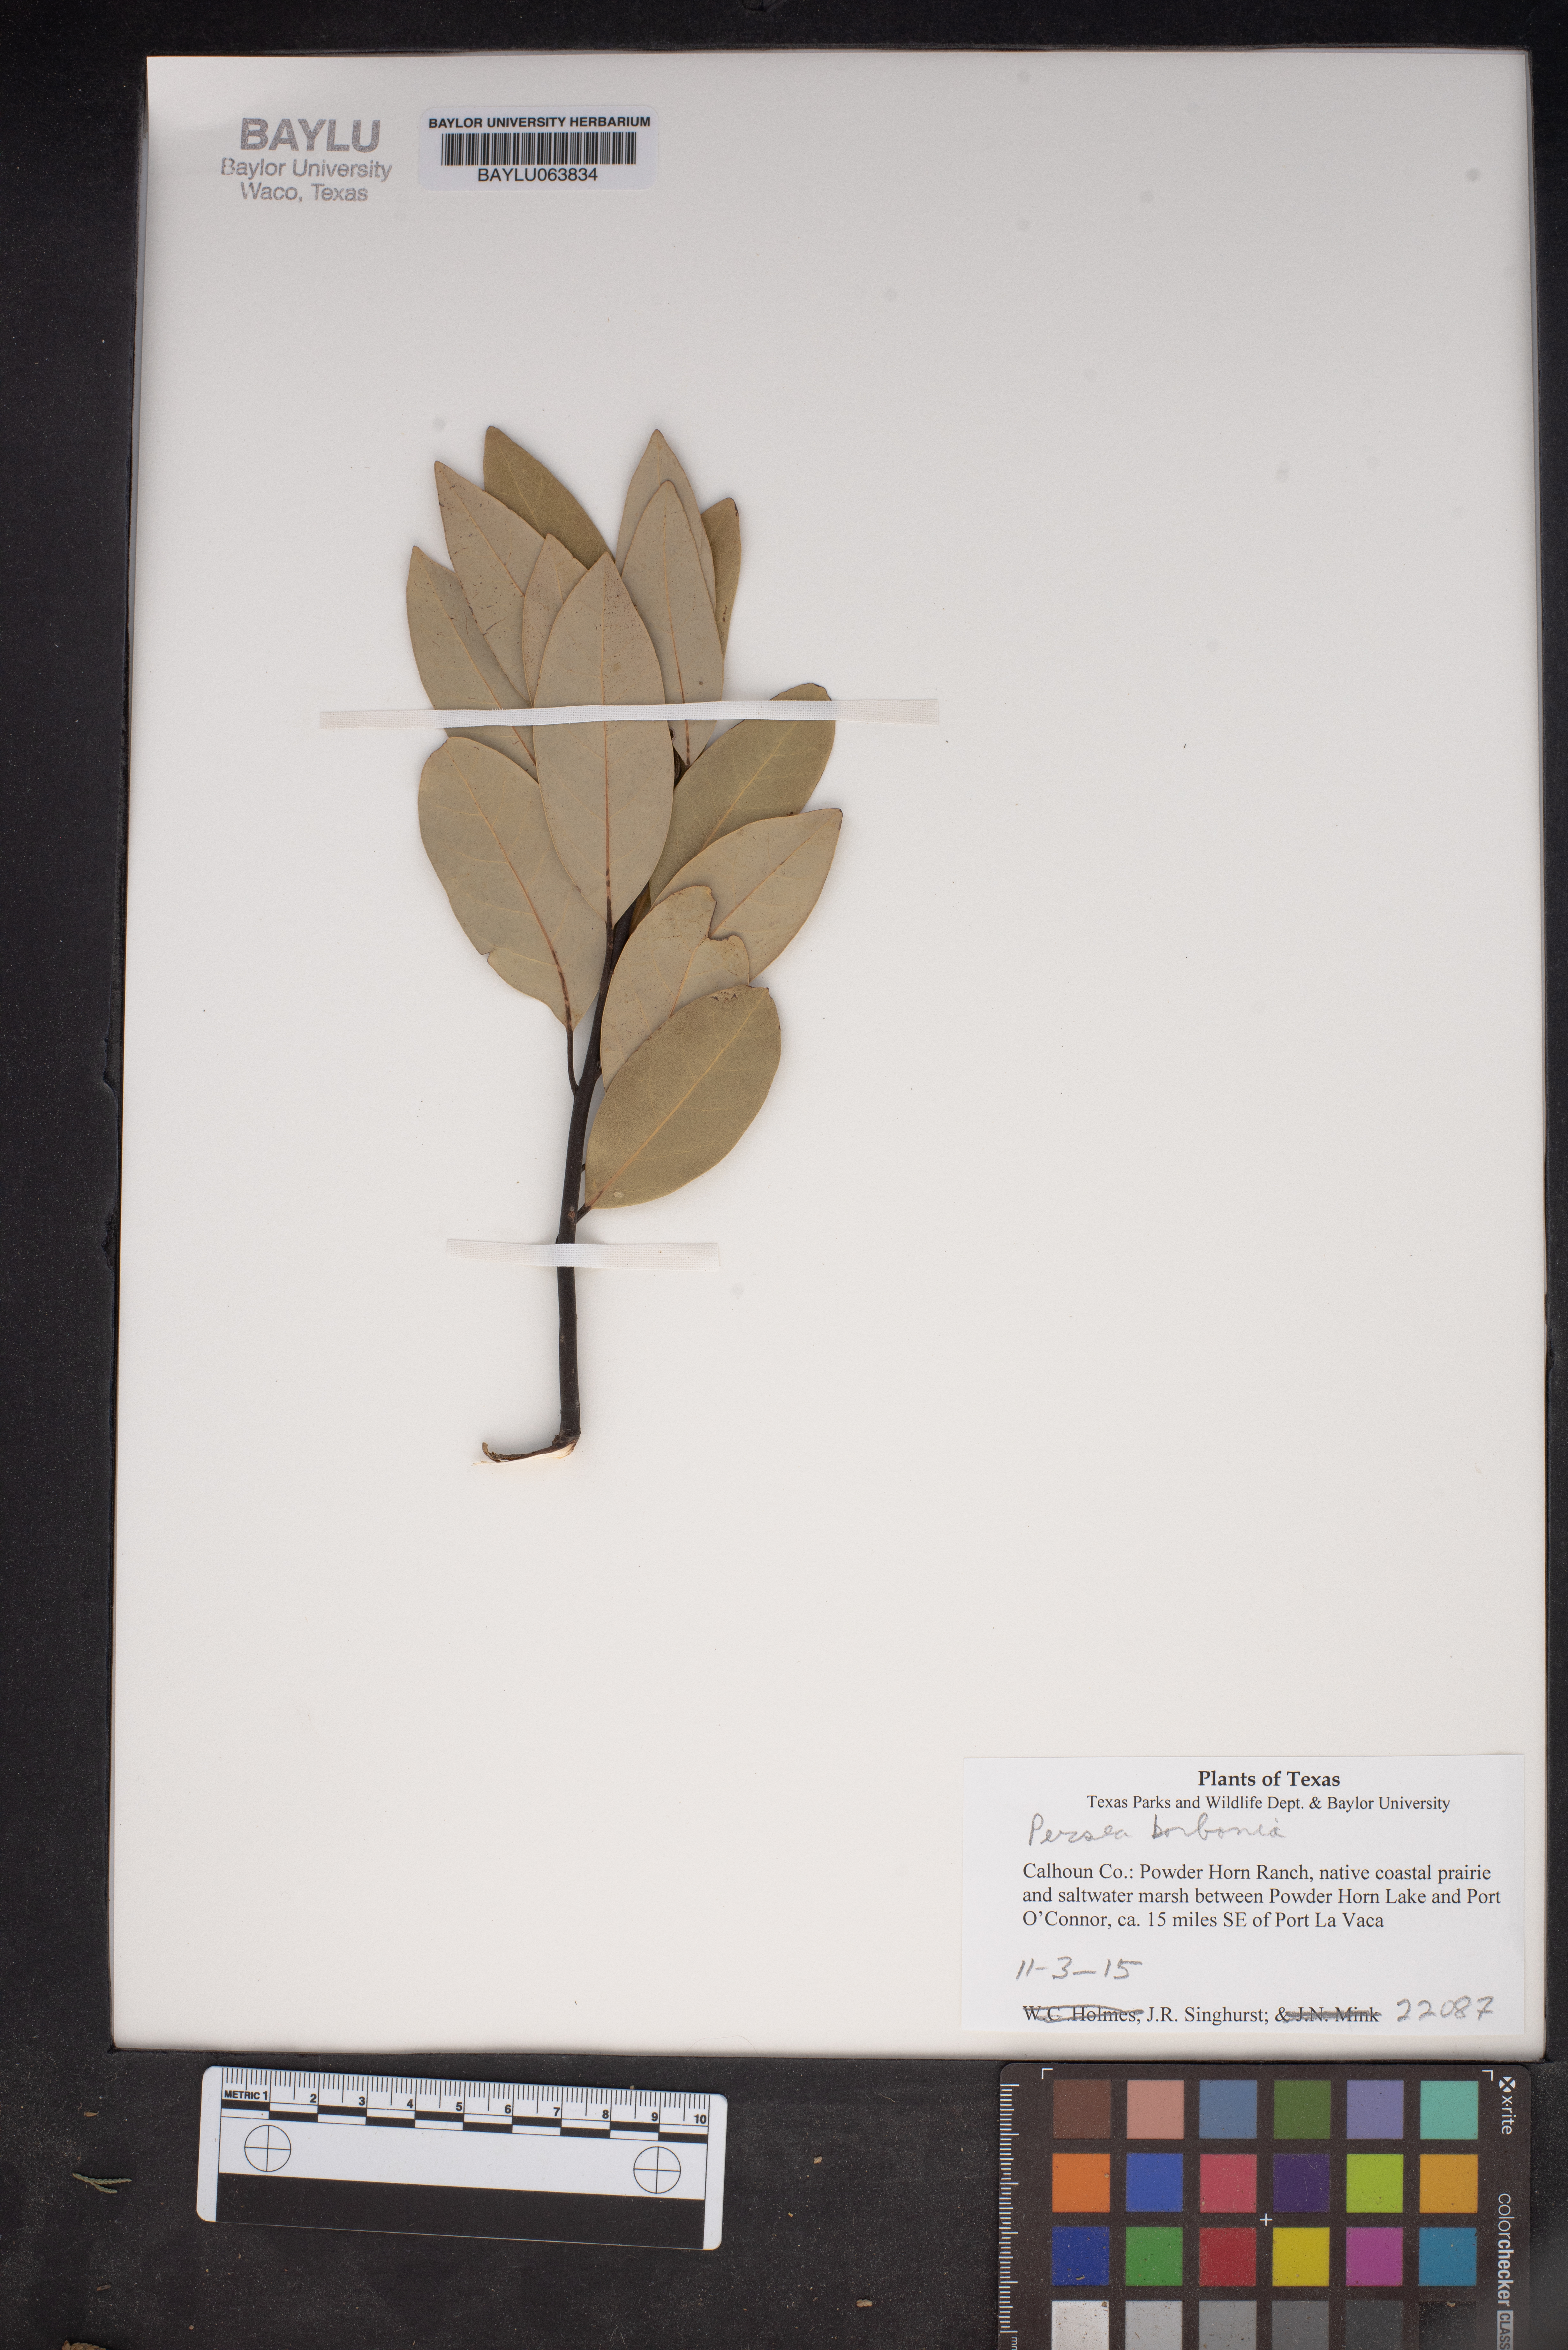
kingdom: Plantae
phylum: Tracheophyta
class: Magnoliopsida
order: Laurales
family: Lauraceae
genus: Persea
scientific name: Persea borbonia
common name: Redbay
